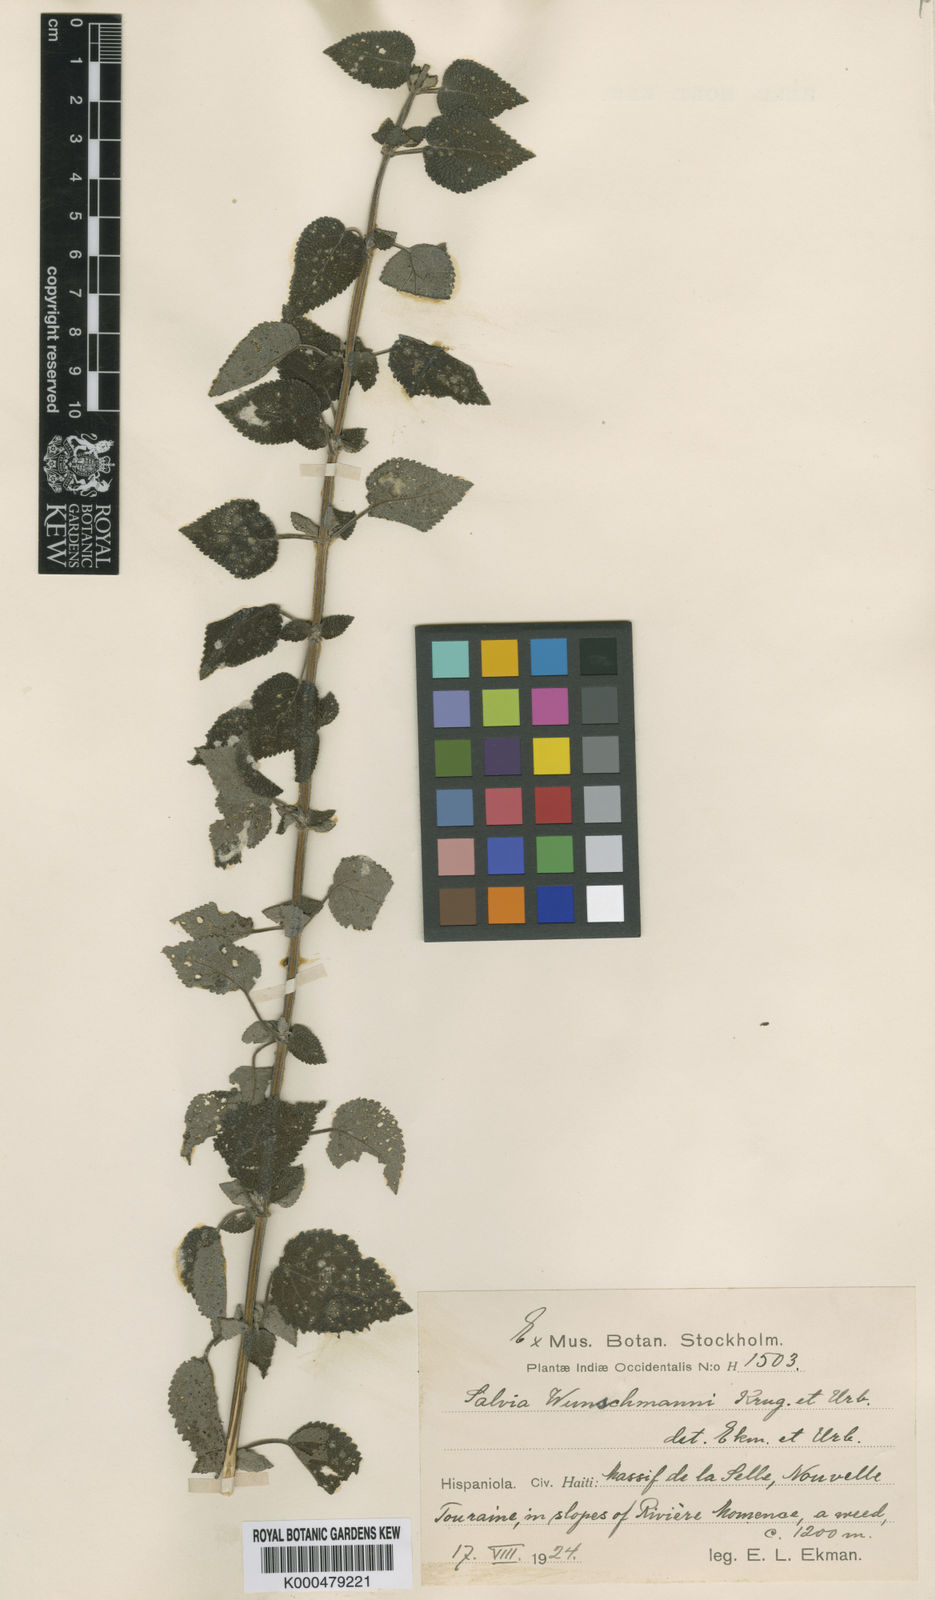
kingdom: Plantae
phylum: Tracheophyta
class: Magnoliopsida
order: Lamiales
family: Lamiaceae
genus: Salvia
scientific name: Salvia densiflora
